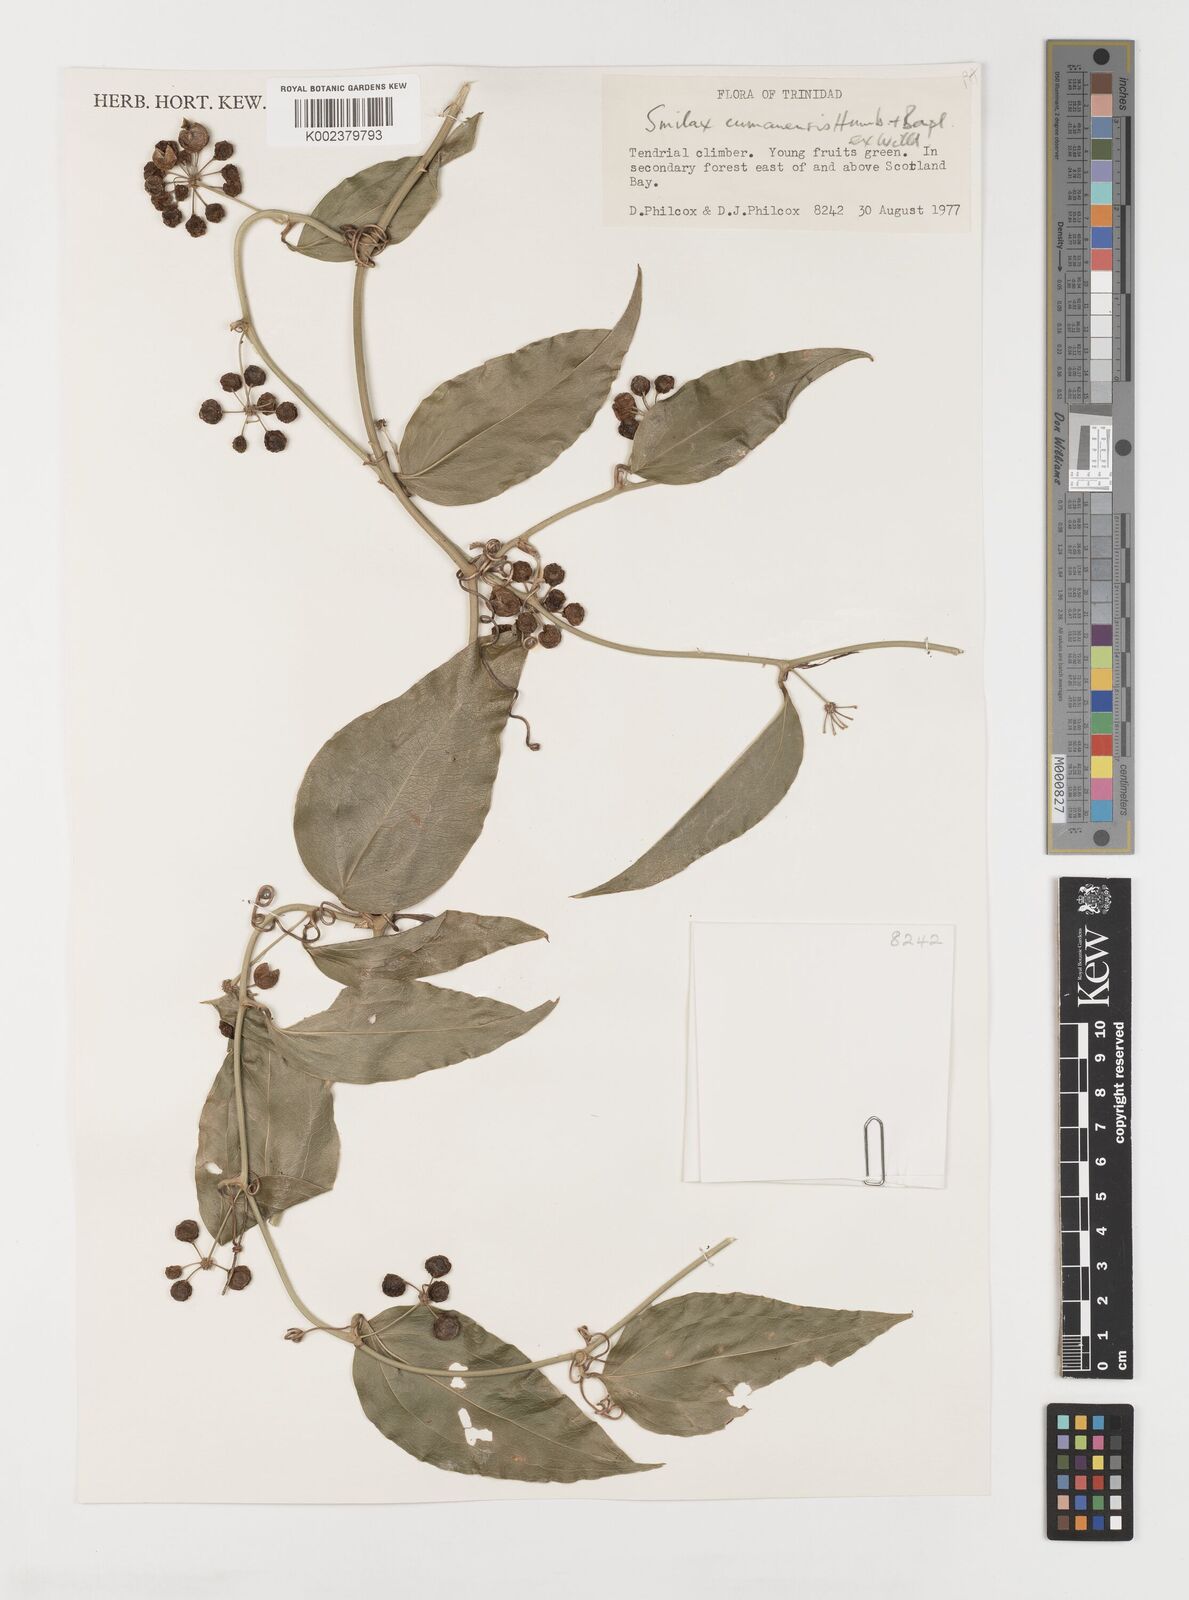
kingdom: Plantae
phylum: Tracheophyta
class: Liliopsida
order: Liliales
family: Smilacaceae
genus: Smilax
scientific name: Smilax oblongata
